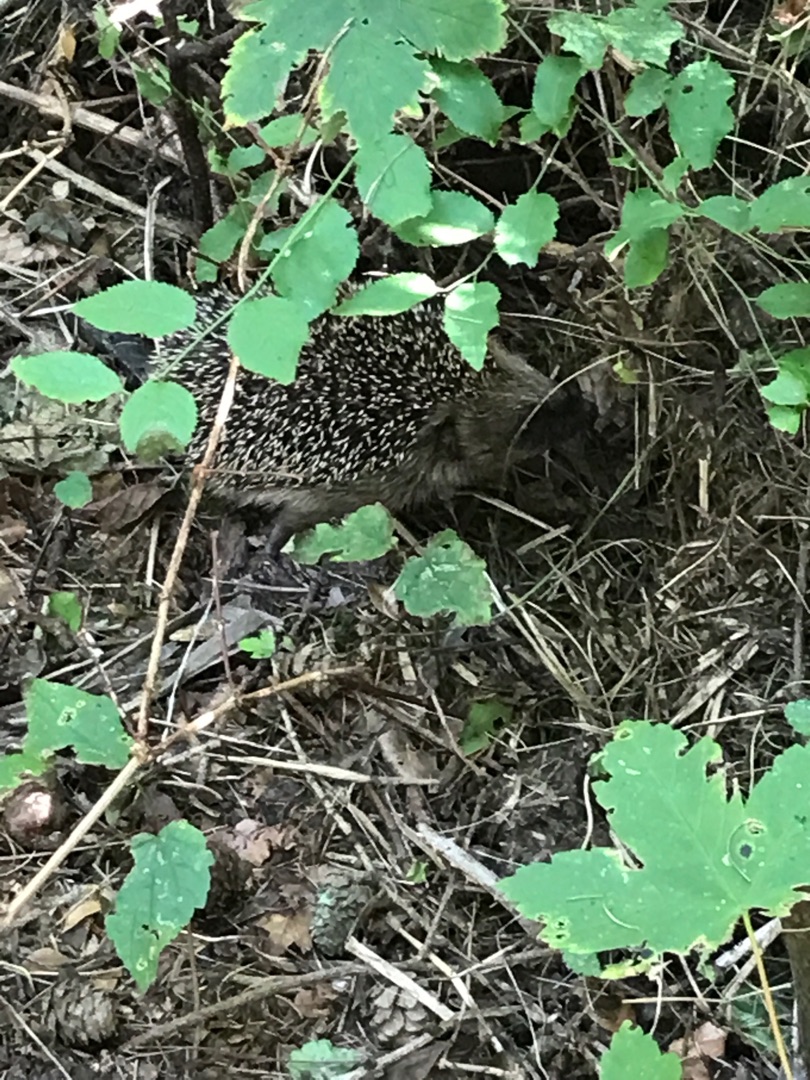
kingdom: Animalia
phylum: Chordata
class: Mammalia
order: Erinaceomorpha
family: Erinaceidae
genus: Erinaceus
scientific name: Erinaceus europaeus
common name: Pindsvin
